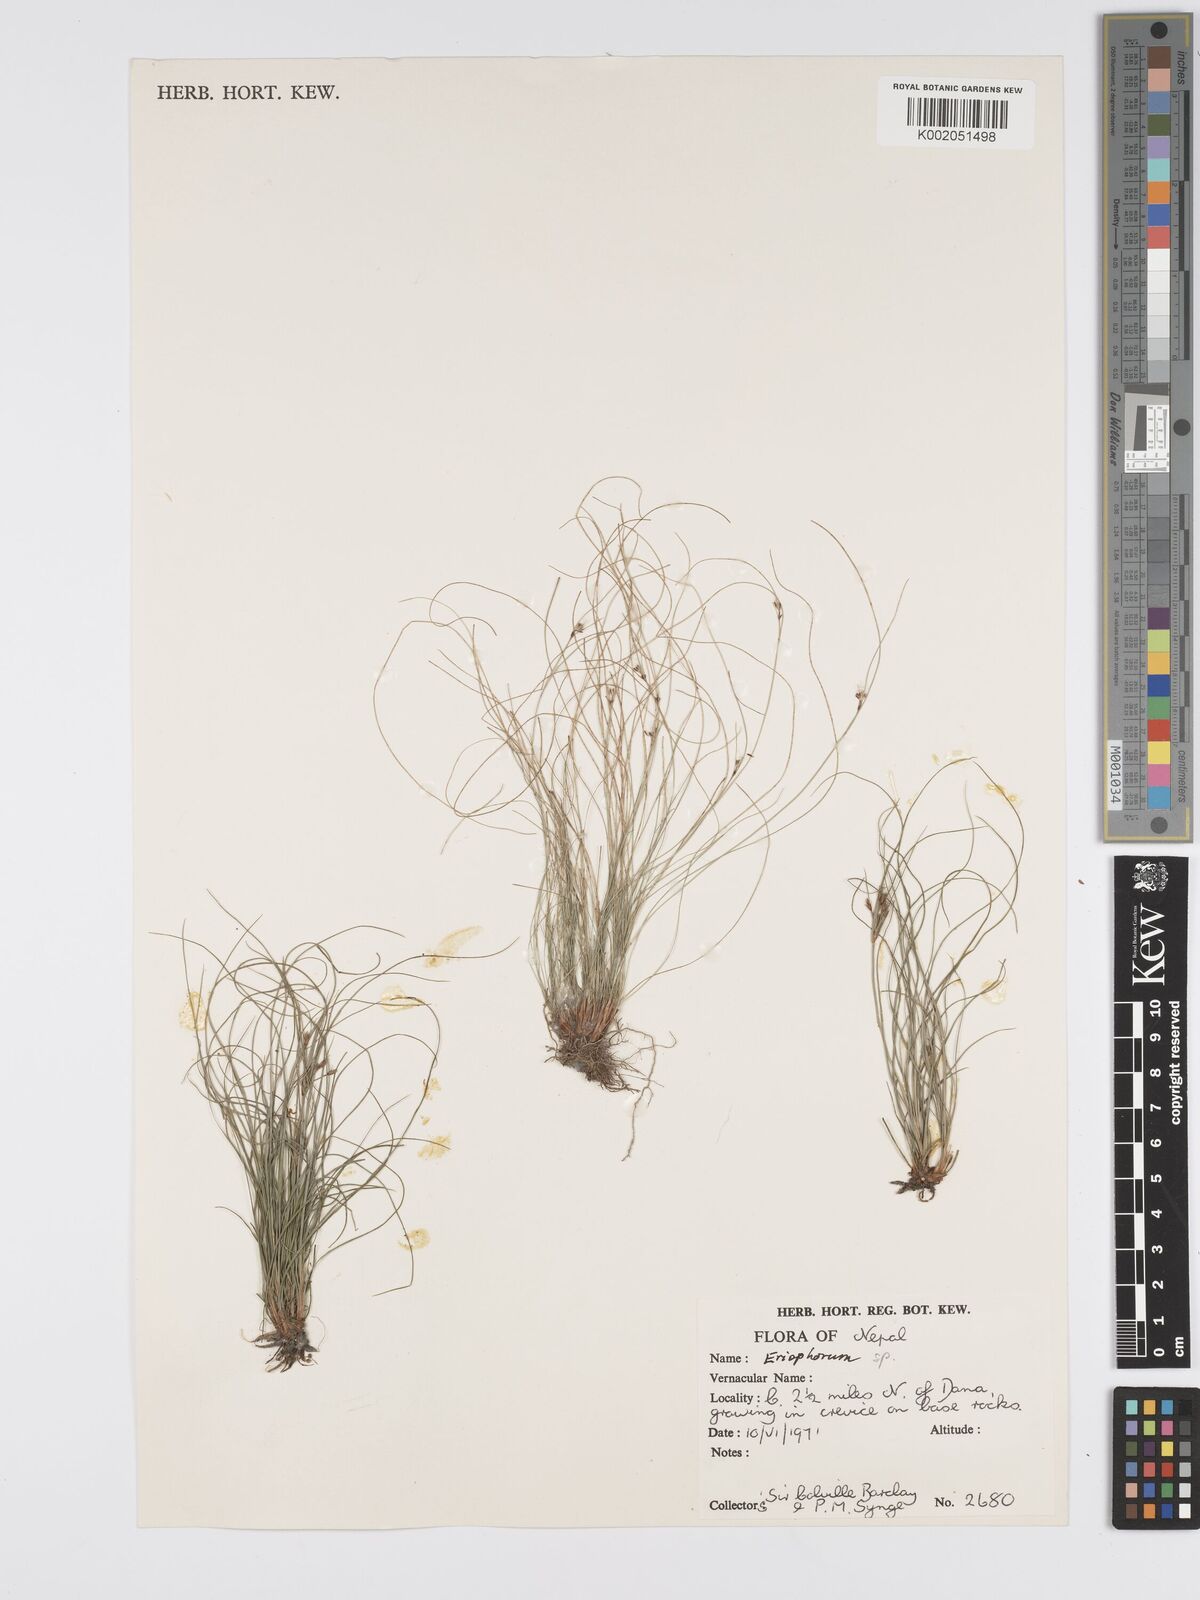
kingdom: Plantae
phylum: Tracheophyta
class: Liliopsida
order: Poales
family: Cyperaceae
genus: Eriophorum
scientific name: Eriophorum
